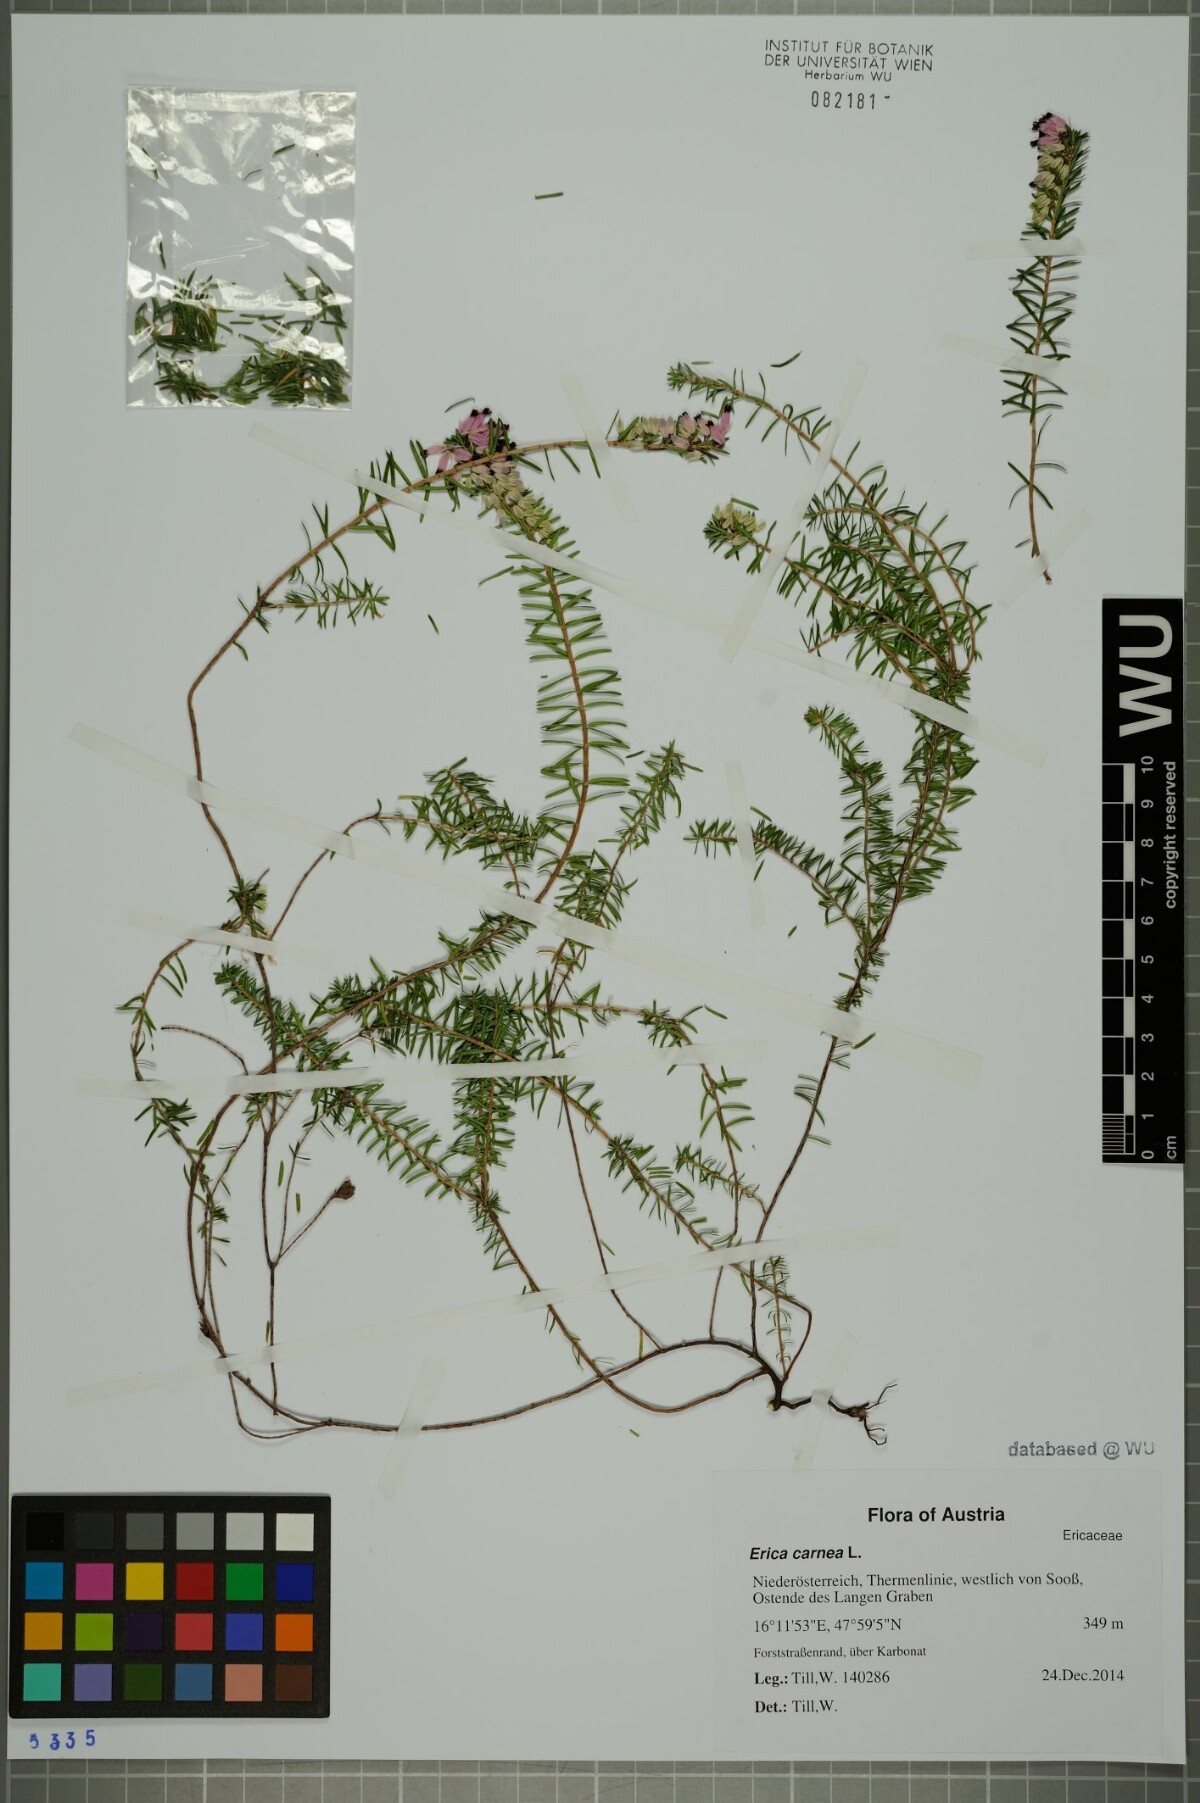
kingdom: Plantae
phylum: Tracheophyta
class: Magnoliopsida
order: Ericales
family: Ericaceae
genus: Erica
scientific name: Erica carnea
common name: Winter heath
